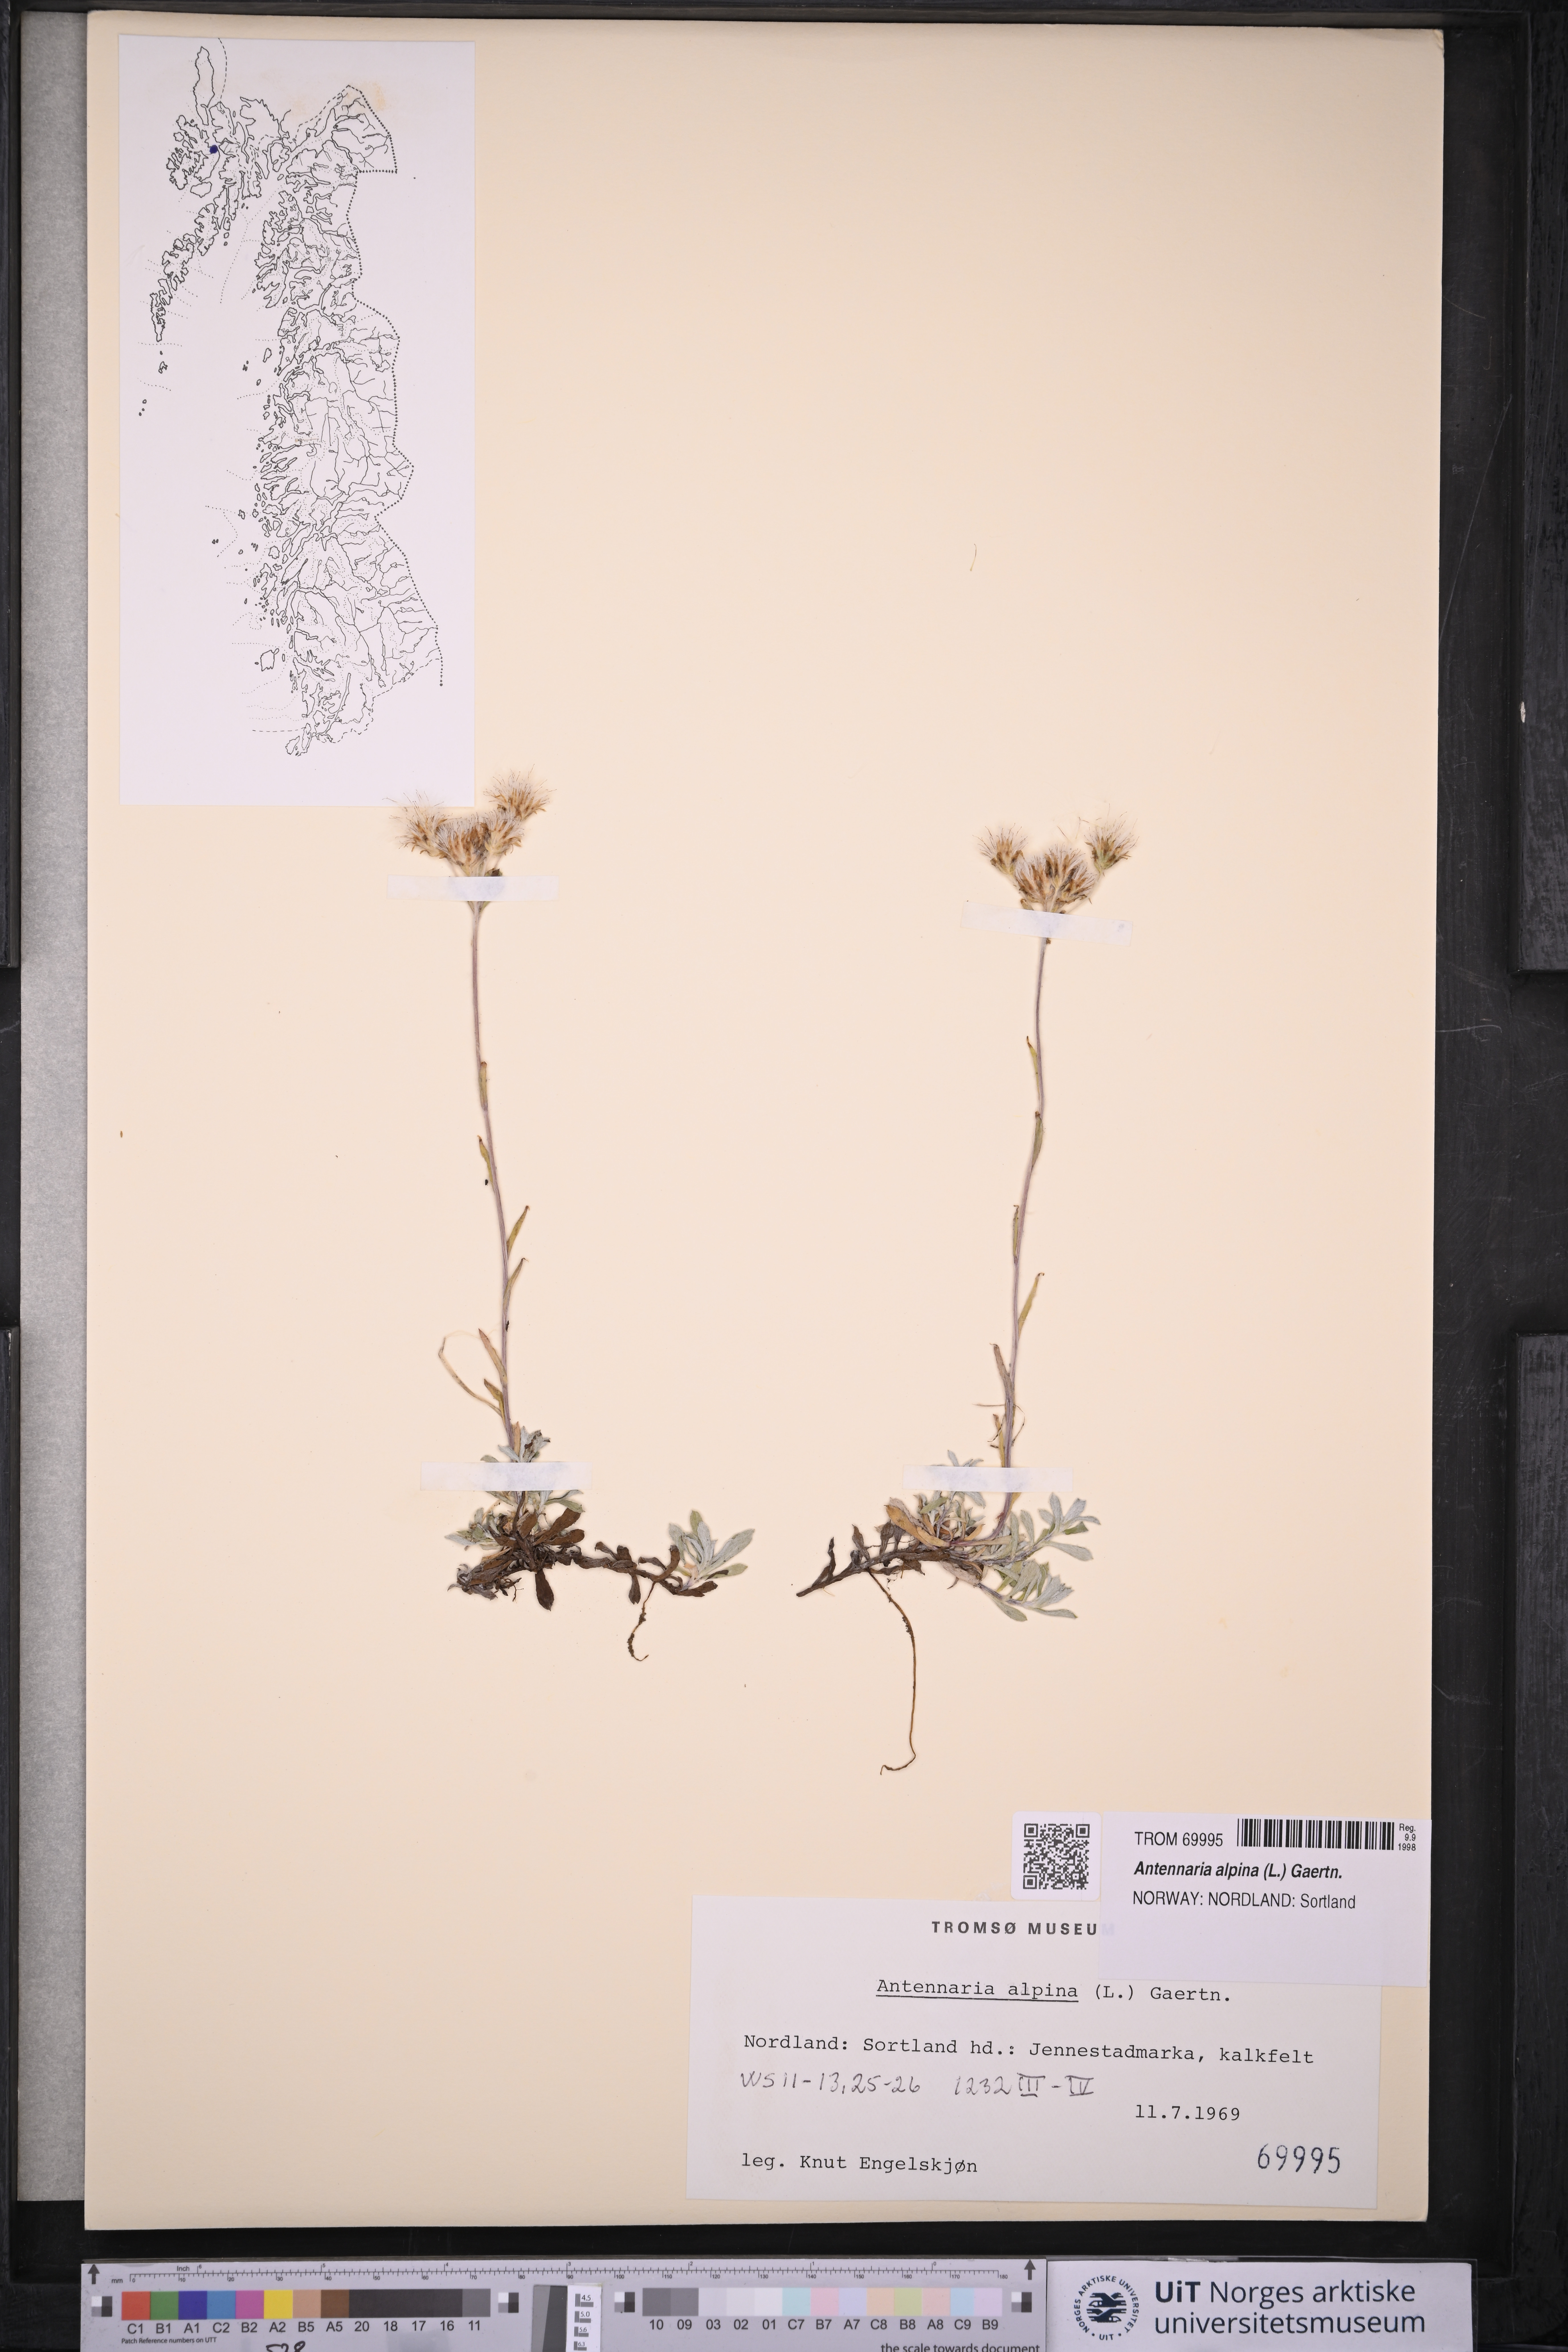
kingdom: Plantae
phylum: Tracheophyta
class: Magnoliopsida
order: Asterales
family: Asteraceae
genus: Antennaria
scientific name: Antennaria alpina
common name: Alpine pussytoes
